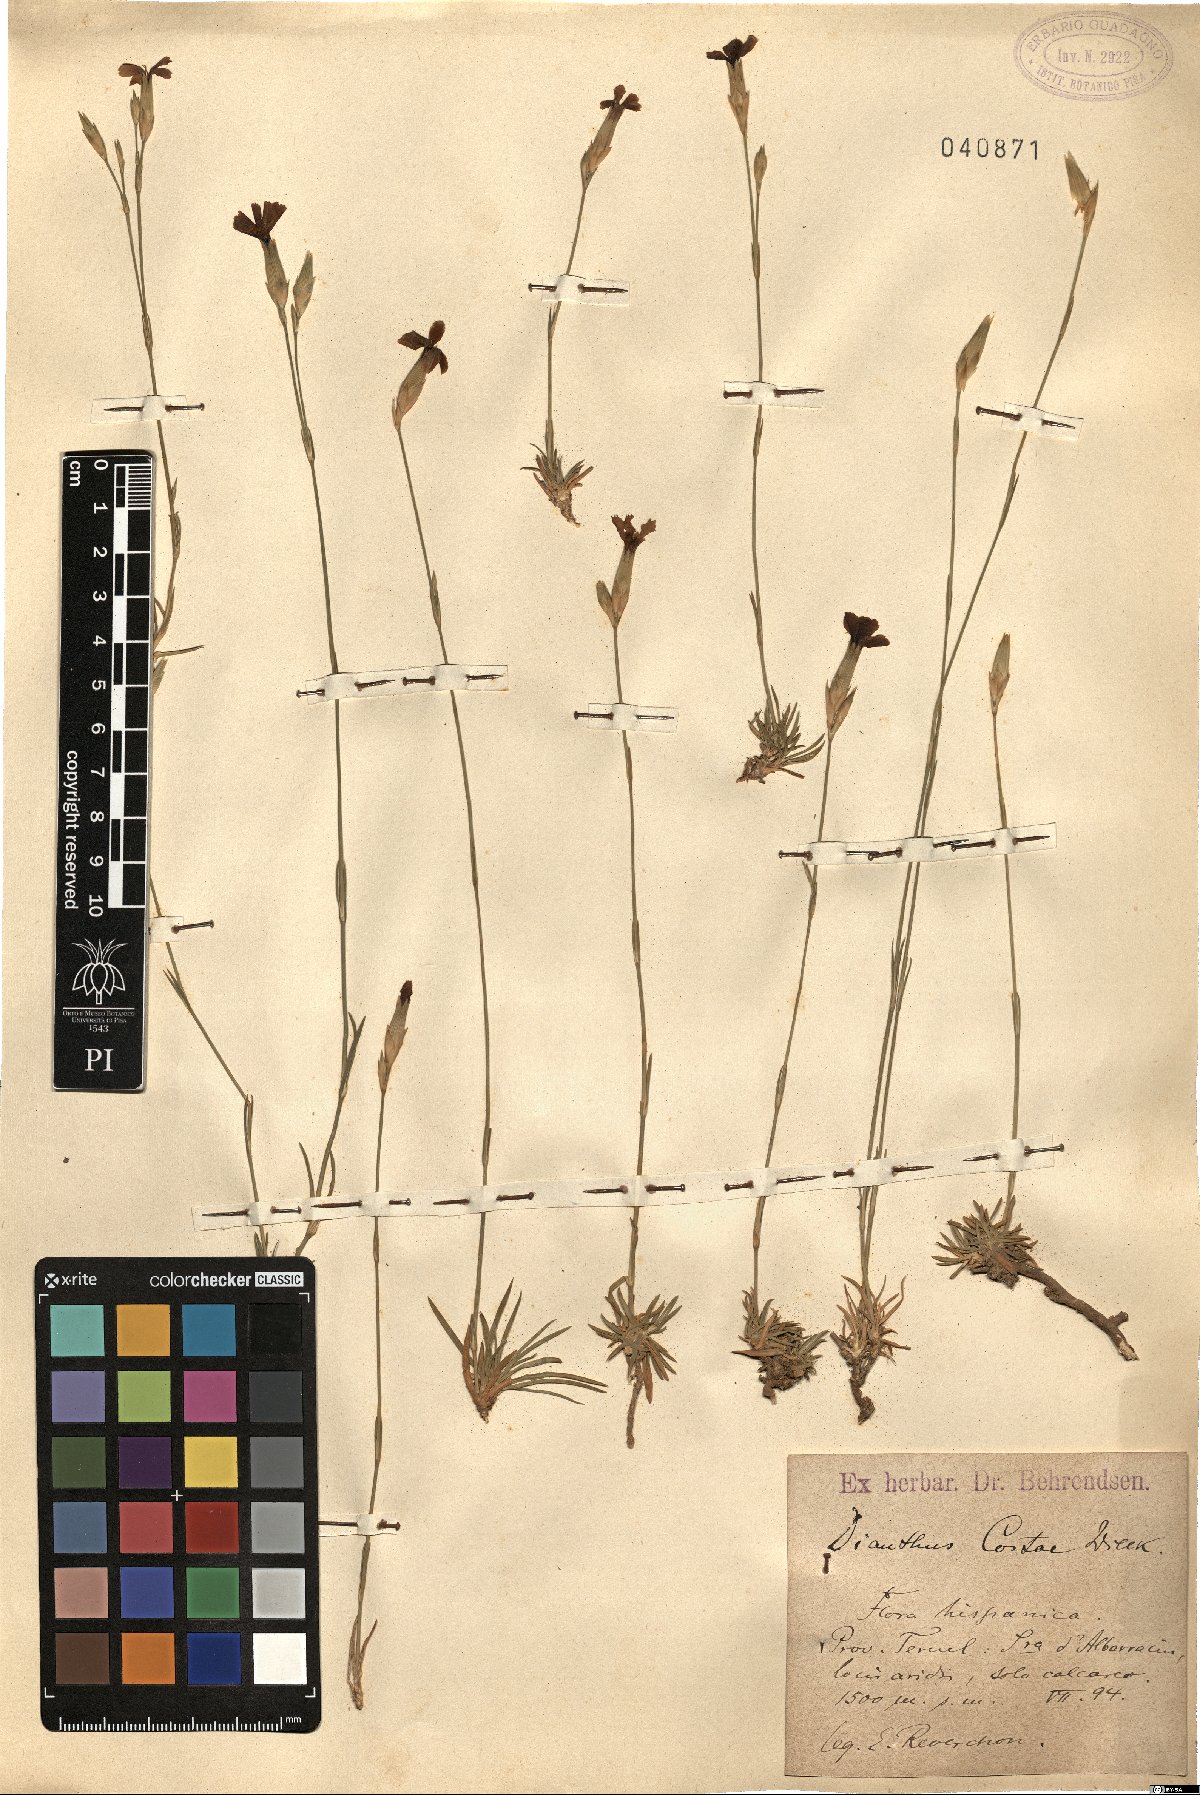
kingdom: Plantae
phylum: Tracheophyta
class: Magnoliopsida
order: Caryophyllales
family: Caryophyllaceae
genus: Dianthus
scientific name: Dianthus algetanus
